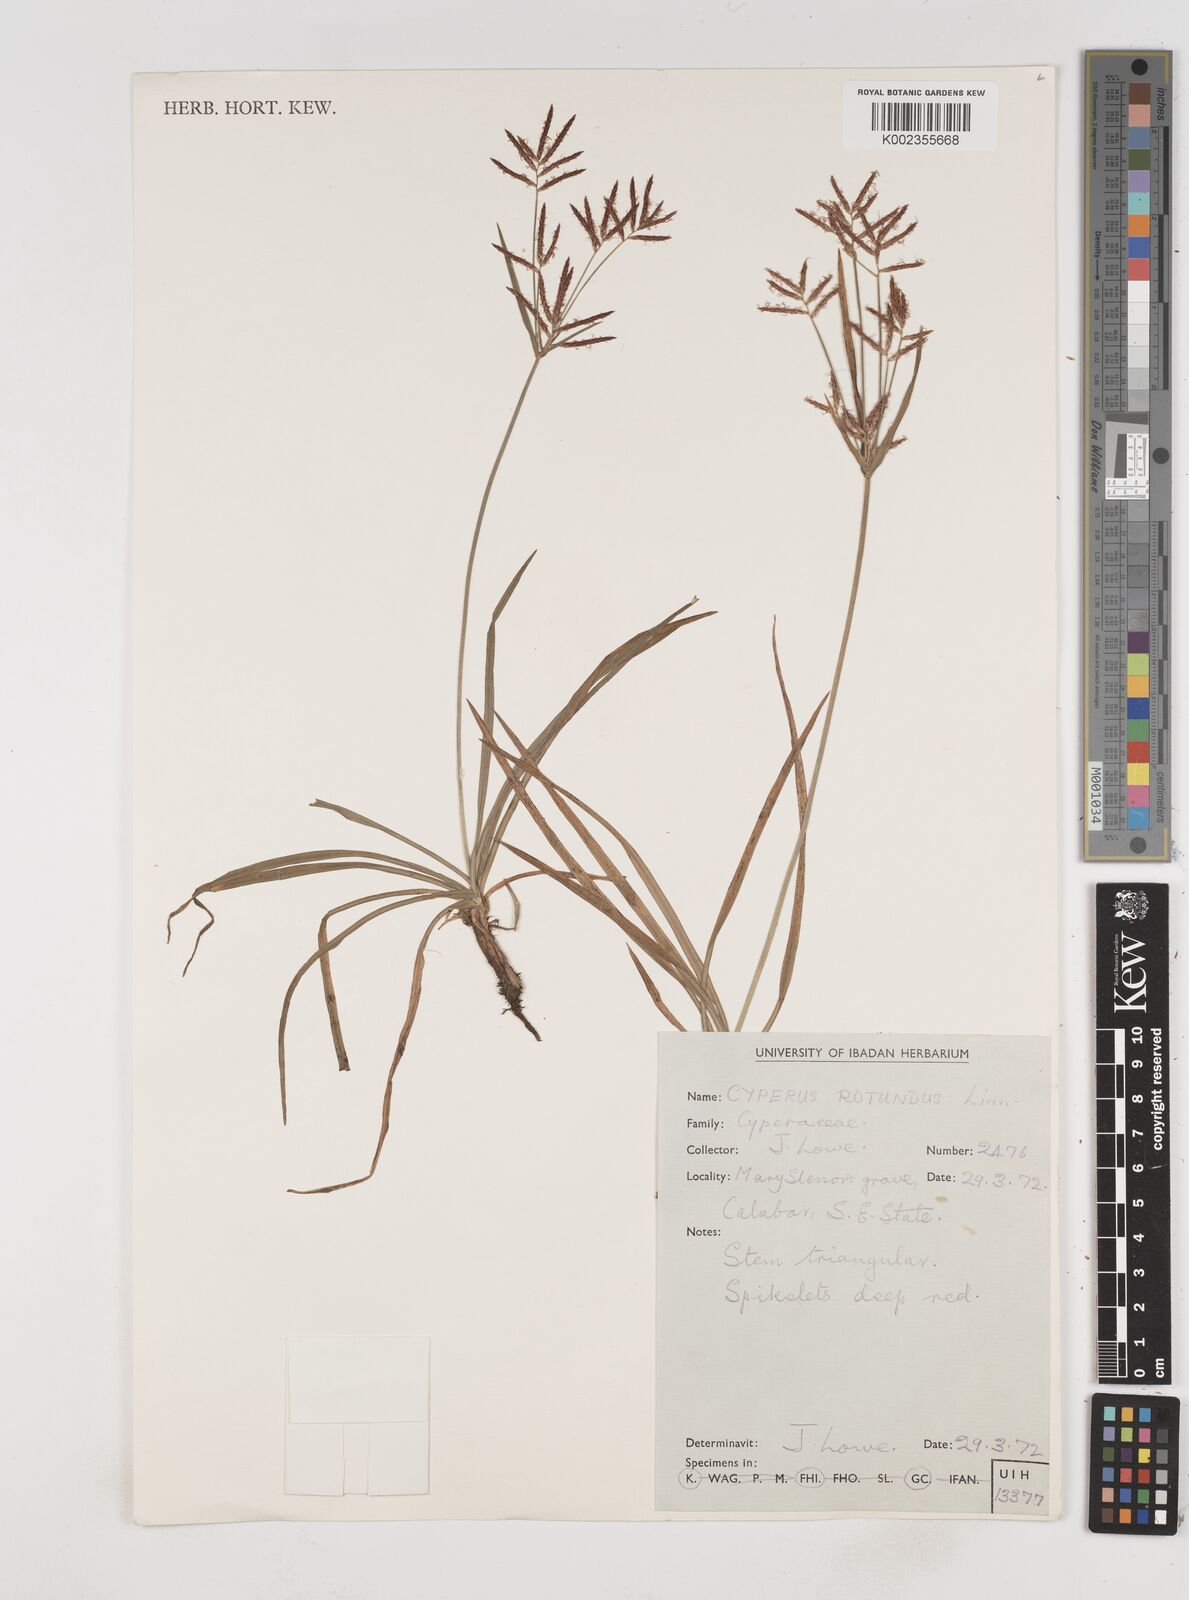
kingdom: Plantae
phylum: Tracheophyta
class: Liliopsida
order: Poales
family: Cyperaceae
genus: Cyperus
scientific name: Cyperus rotundus
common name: Nutgrass
